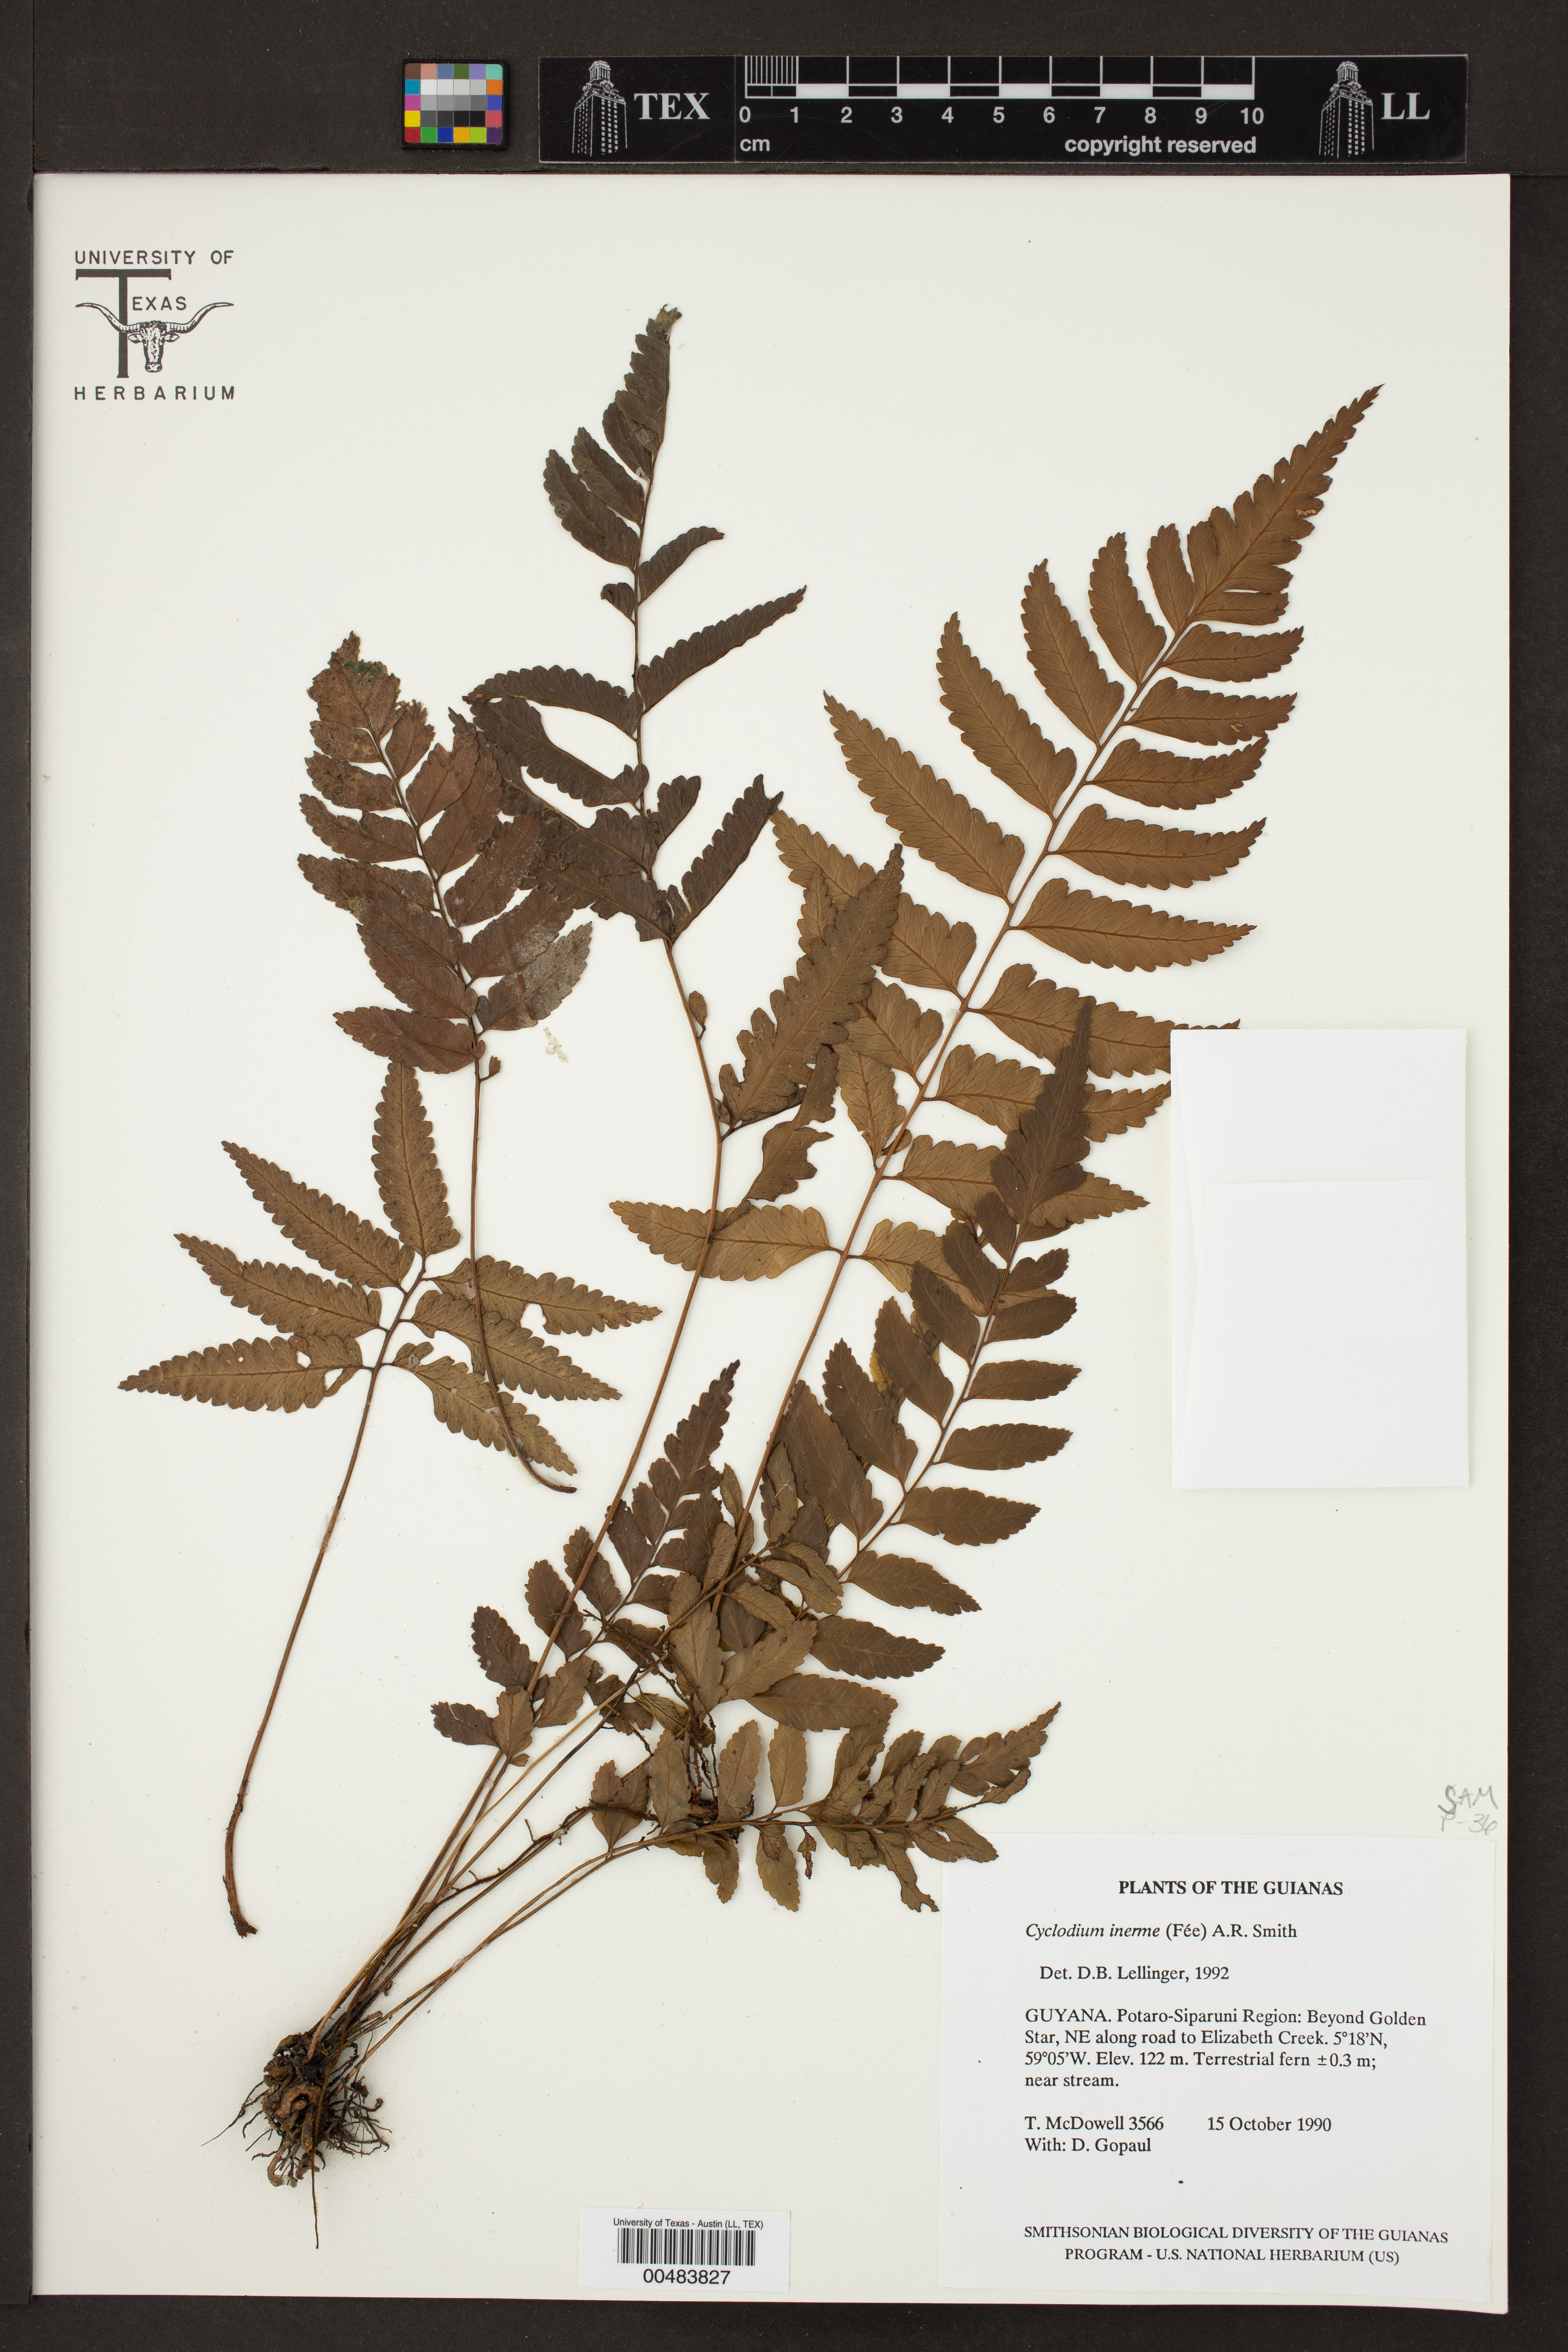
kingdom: Plantae
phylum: Tracheophyta
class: Polypodiopsida
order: Polypodiales
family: Dryopteridaceae
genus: Cyclodium
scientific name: Cyclodium inerme
